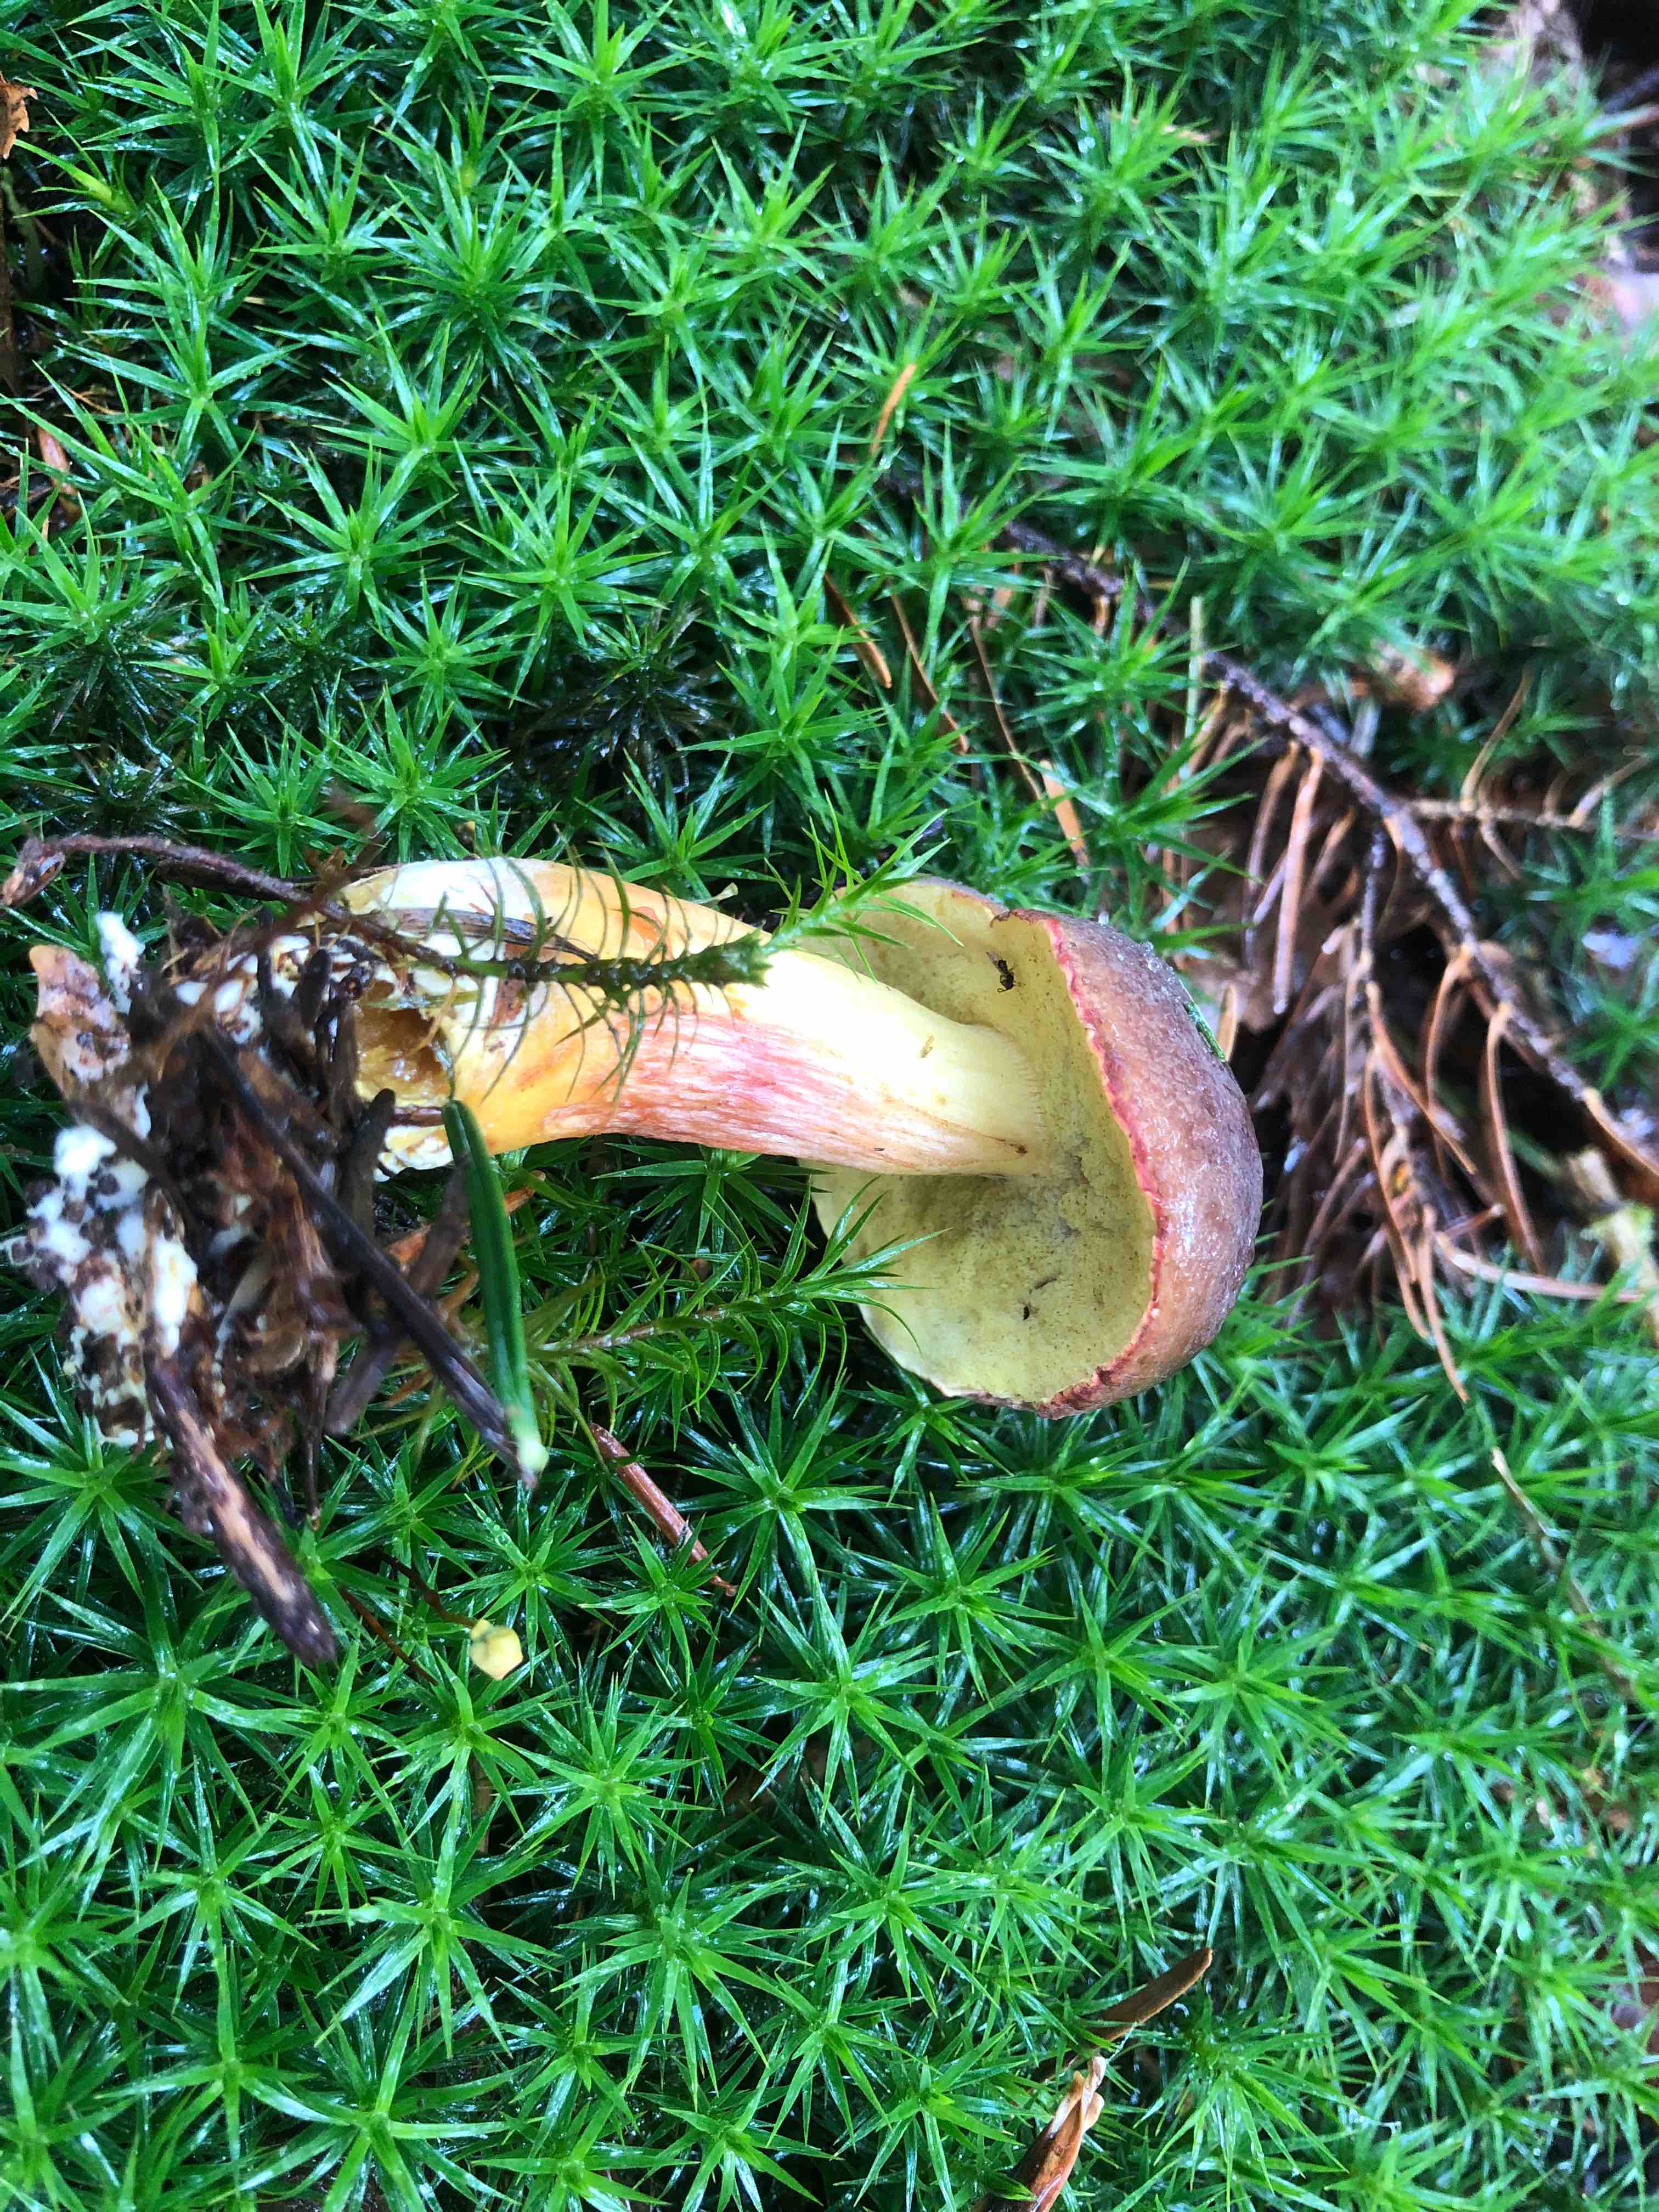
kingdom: Fungi
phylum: Basidiomycota
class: Agaricomycetes
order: Boletales
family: Boletaceae
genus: Xerocomellus
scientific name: Xerocomellus pruinatus
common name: dugget rørhat
